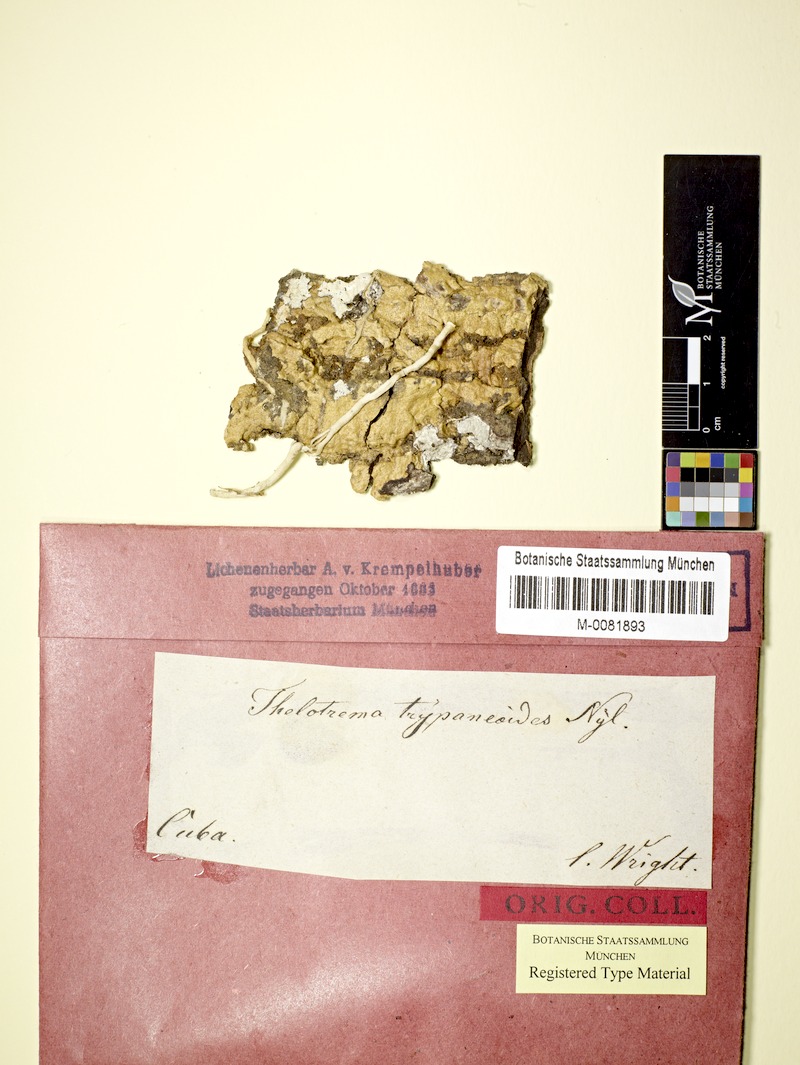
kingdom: Fungi
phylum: Ascomycota
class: Lecanoromycetes
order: Ostropales
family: Graphidaceae
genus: Wirthiotrema
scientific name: Wirthiotrema trypaneoides
